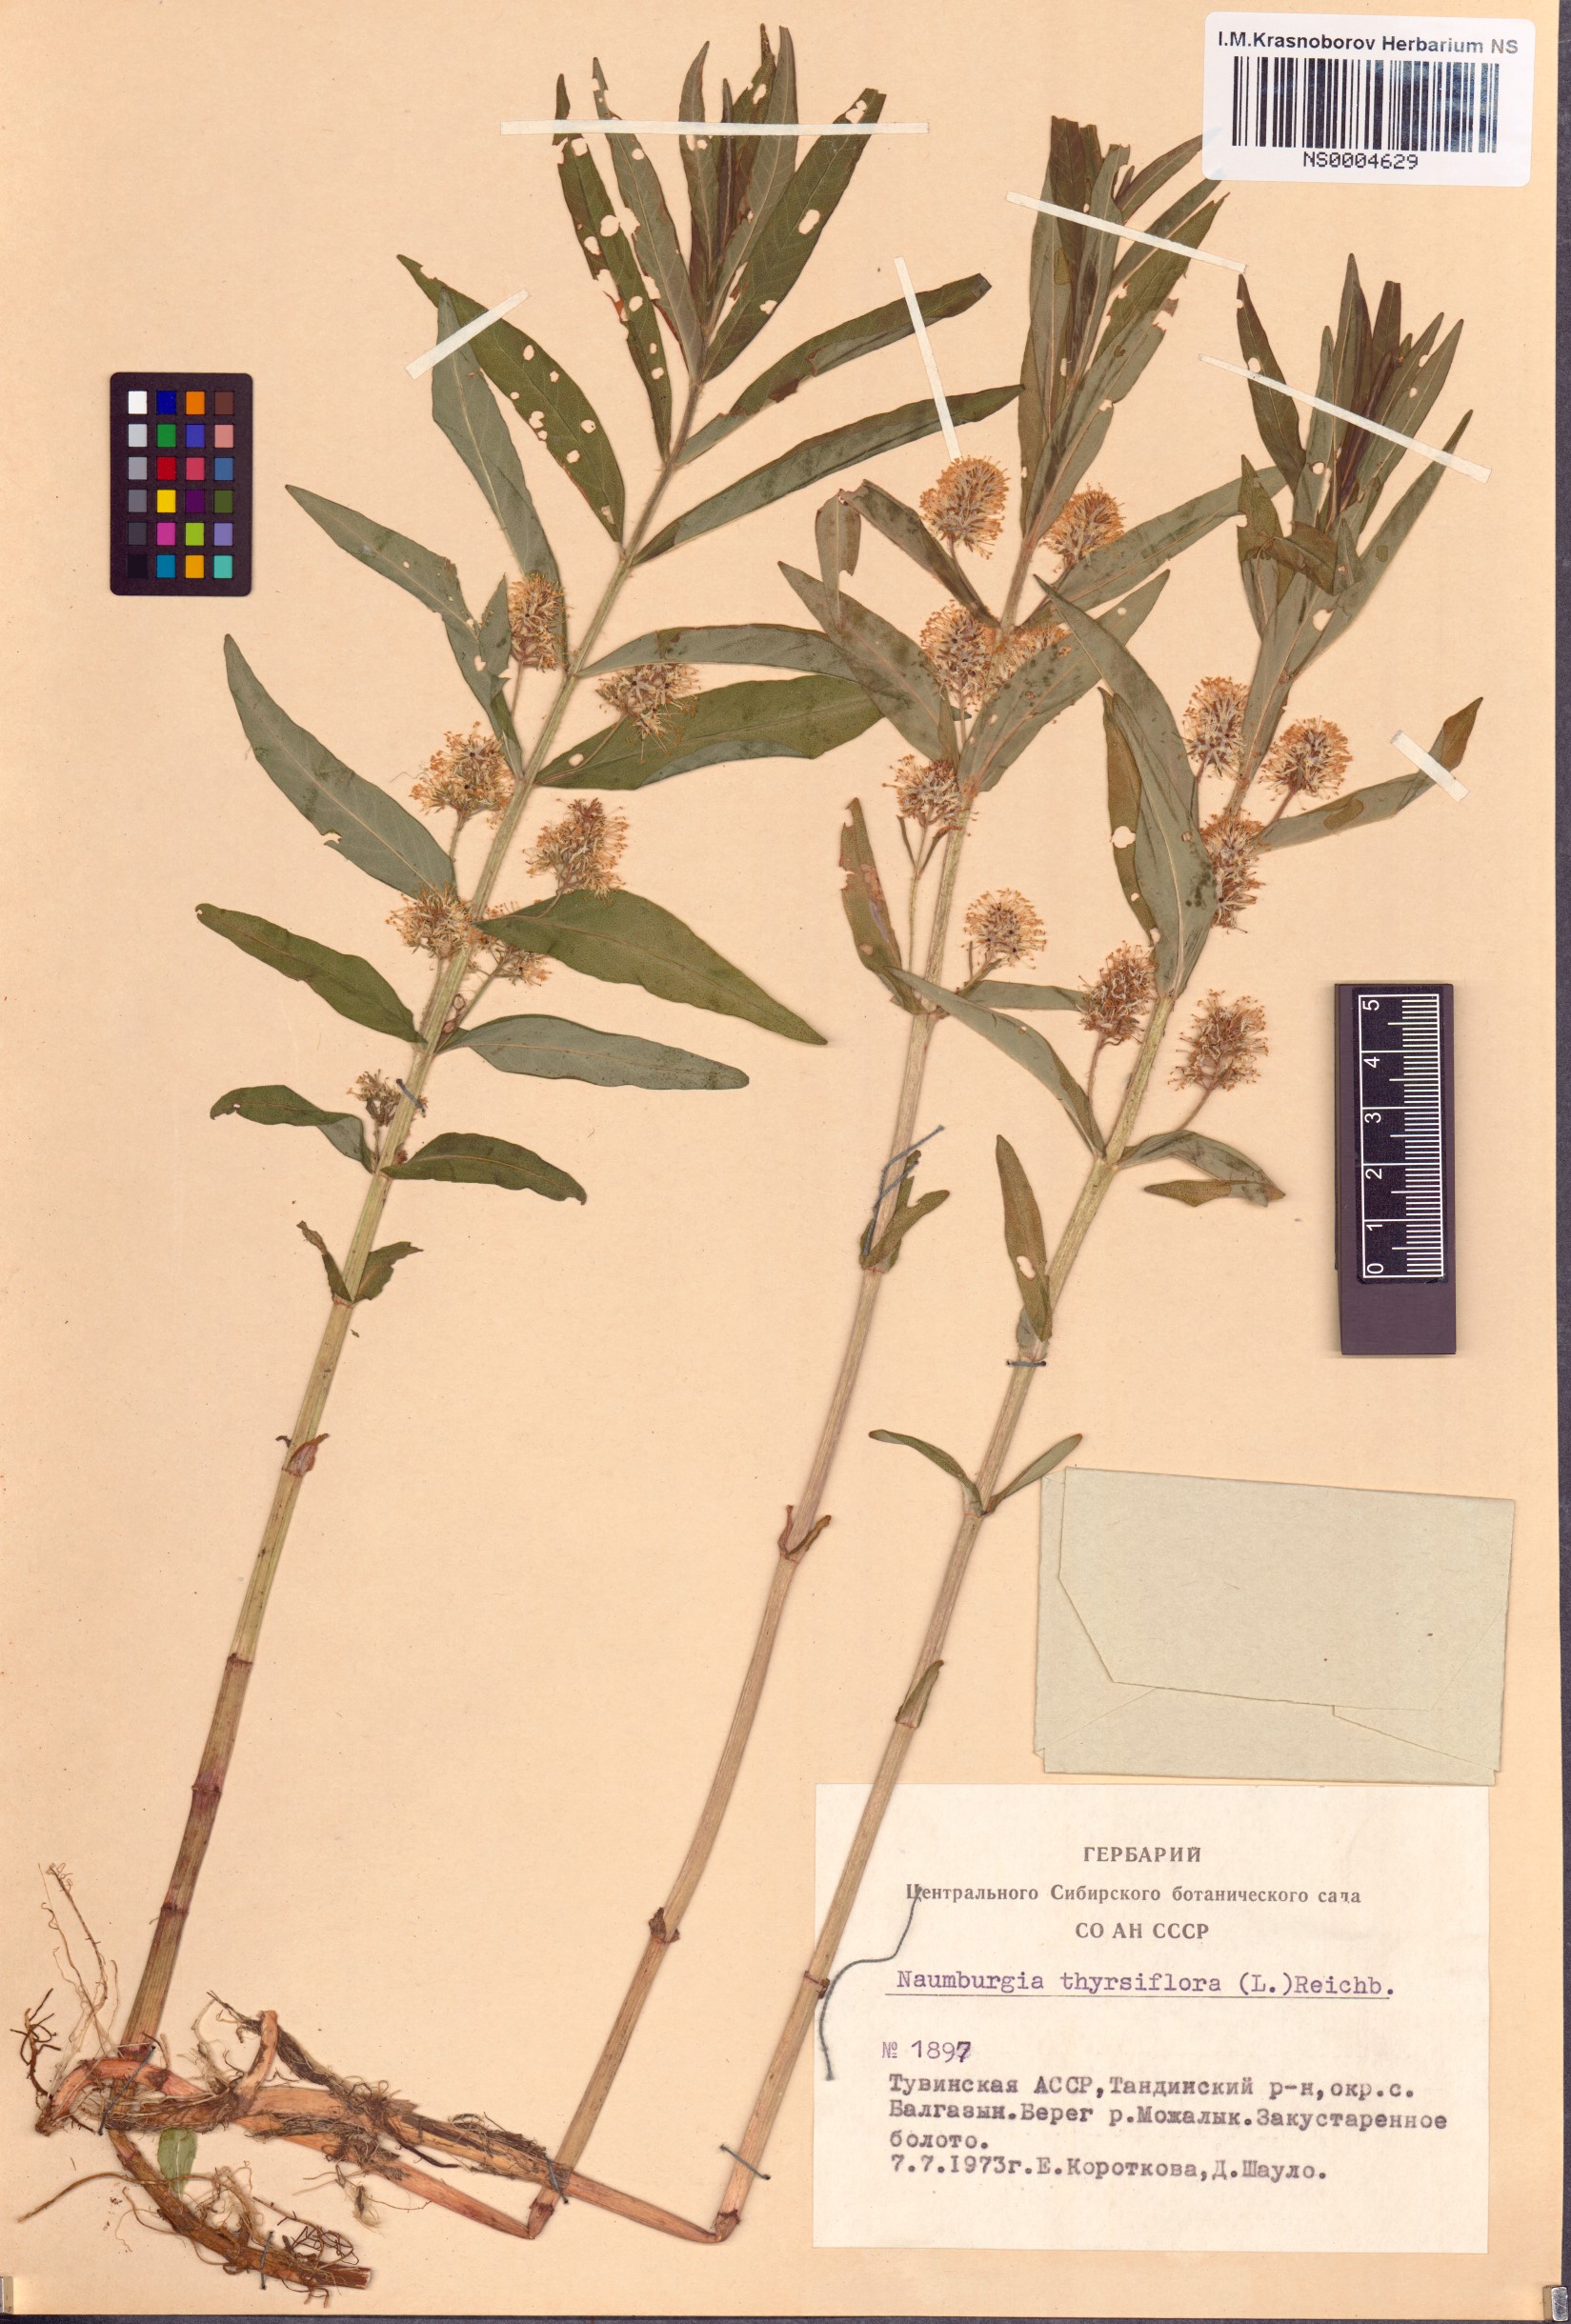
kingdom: Plantae
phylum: Tracheophyta
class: Magnoliopsida
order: Ericales
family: Primulaceae
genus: Lysimachia
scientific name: Lysimachia thyrsiflora
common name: Tufted loosestrife
